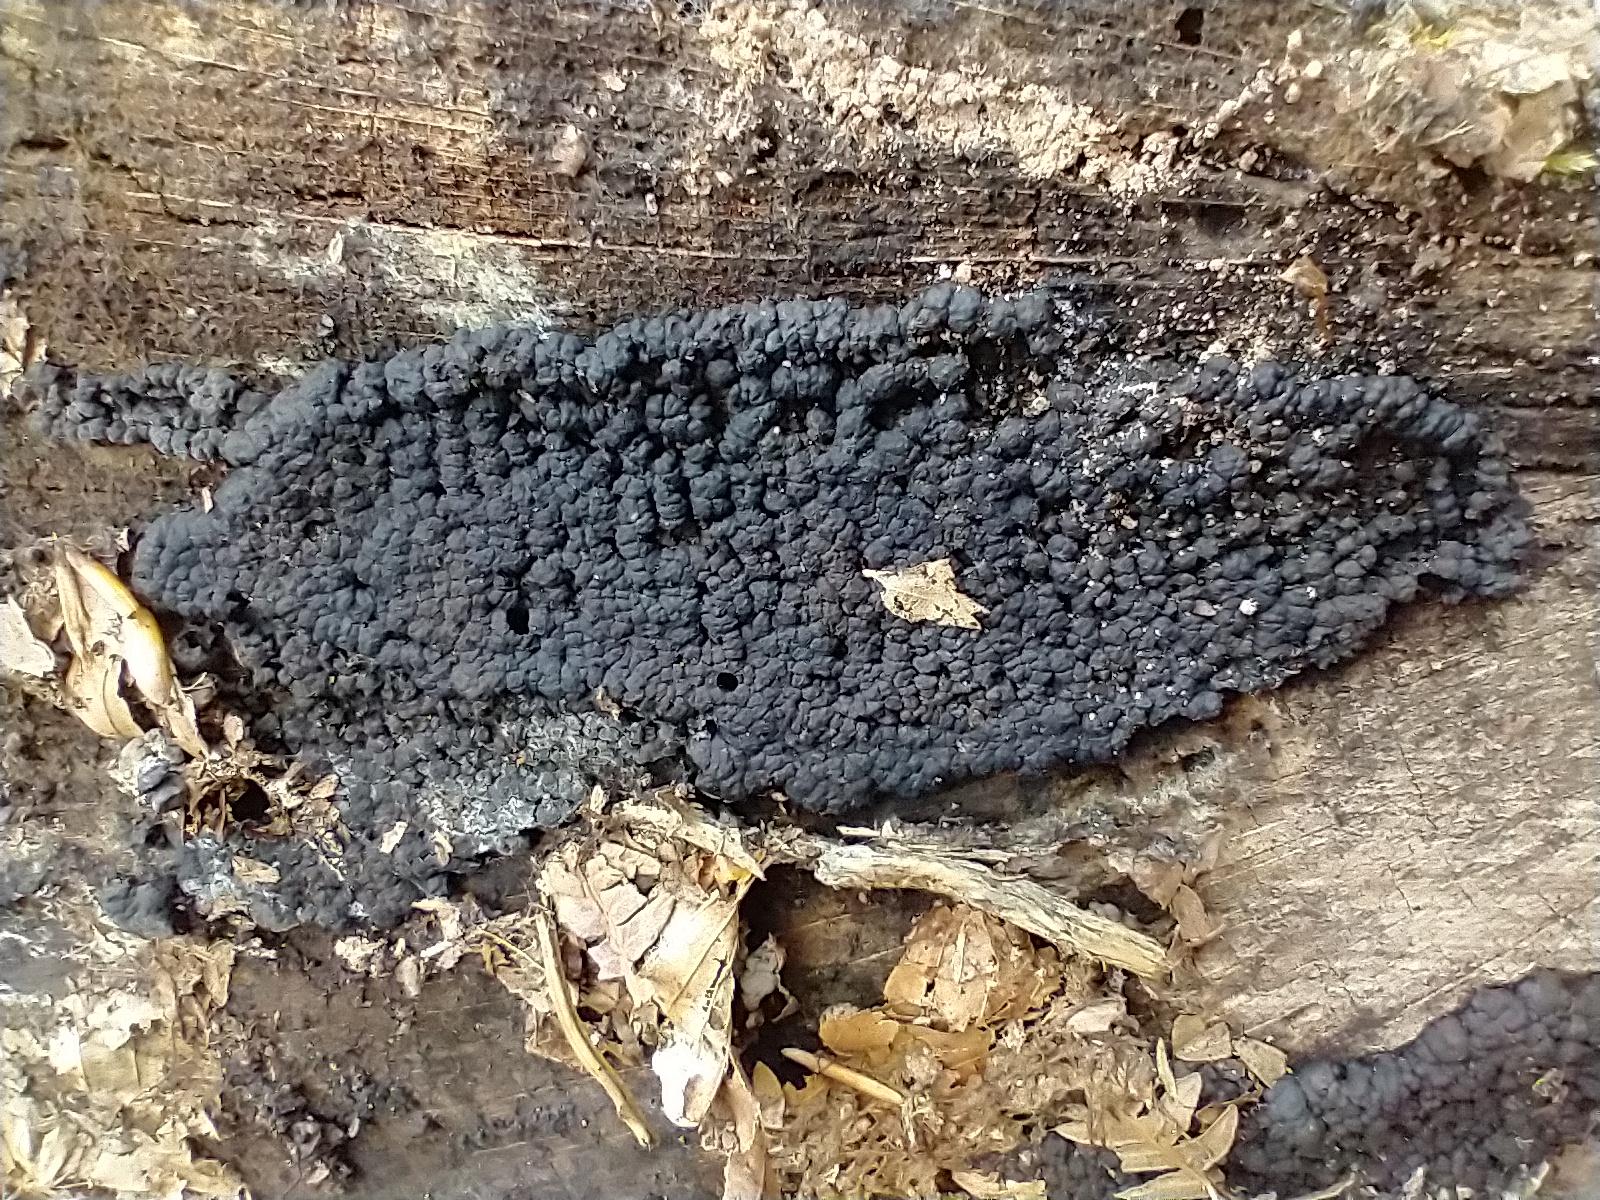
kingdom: Fungi
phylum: Ascomycota
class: Sordariomycetes
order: Xylariales
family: Hypoxylaceae
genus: Jackrogersella
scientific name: Jackrogersella cohaerens
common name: sammenflydende kulbær
